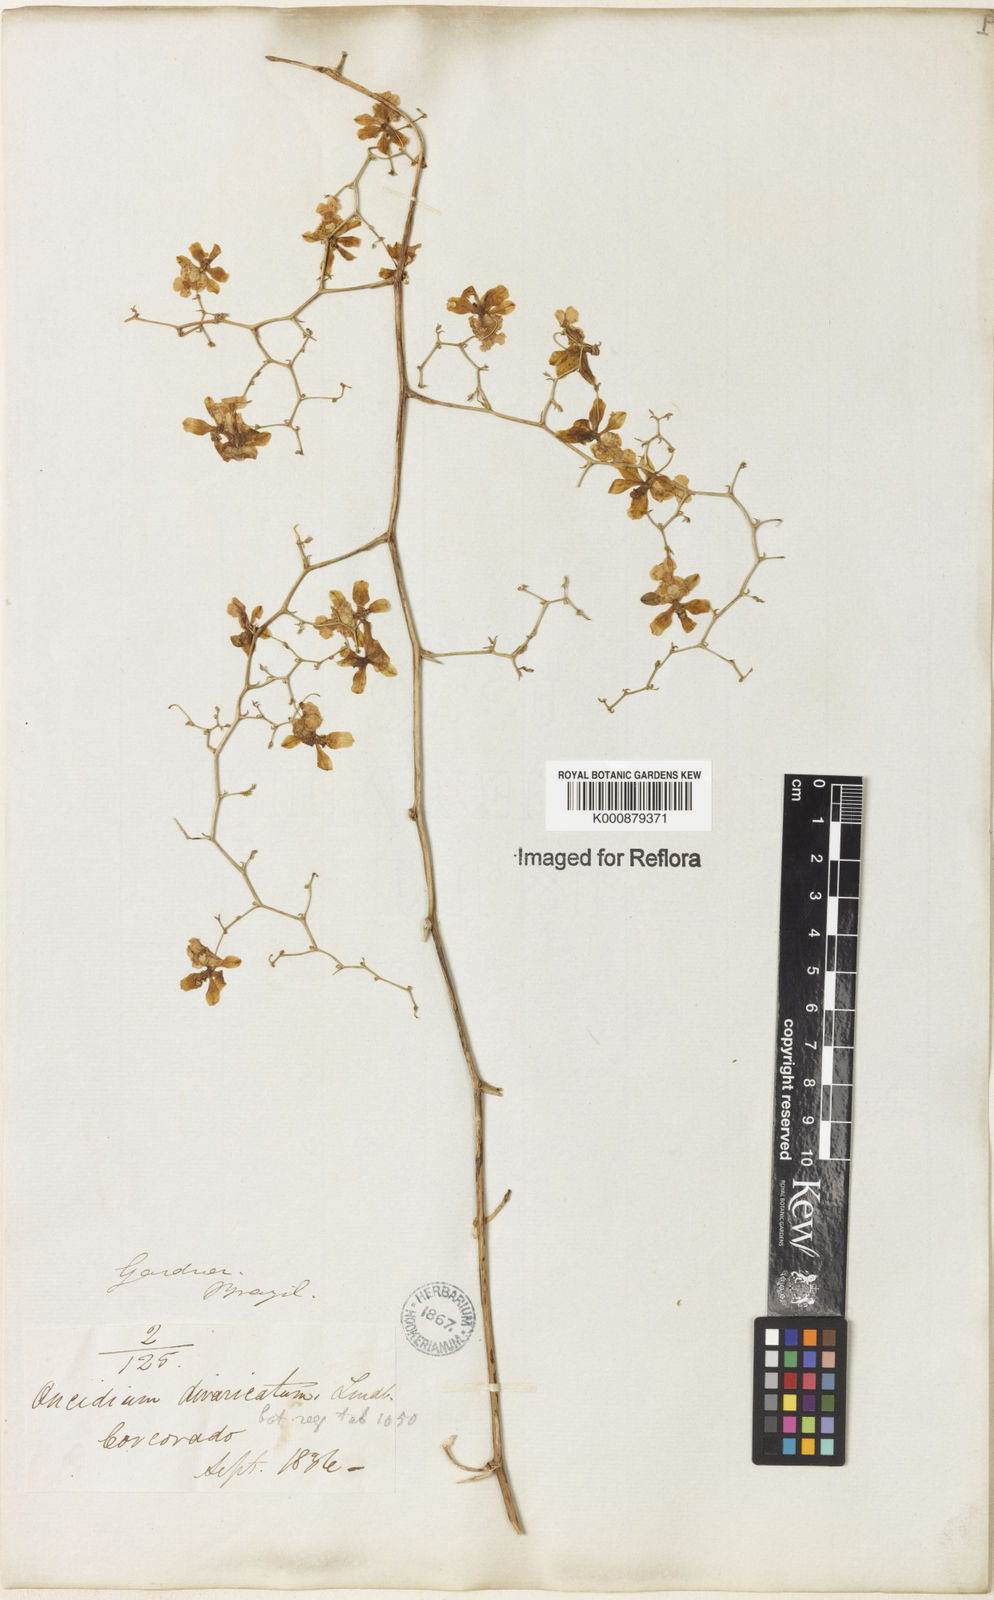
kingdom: Plantae
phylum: Tracheophyta
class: Liliopsida
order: Asparagales
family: Orchidaceae
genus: Grandiphyllum
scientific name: Grandiphyllum divaricatum
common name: Mule-ear orchid
